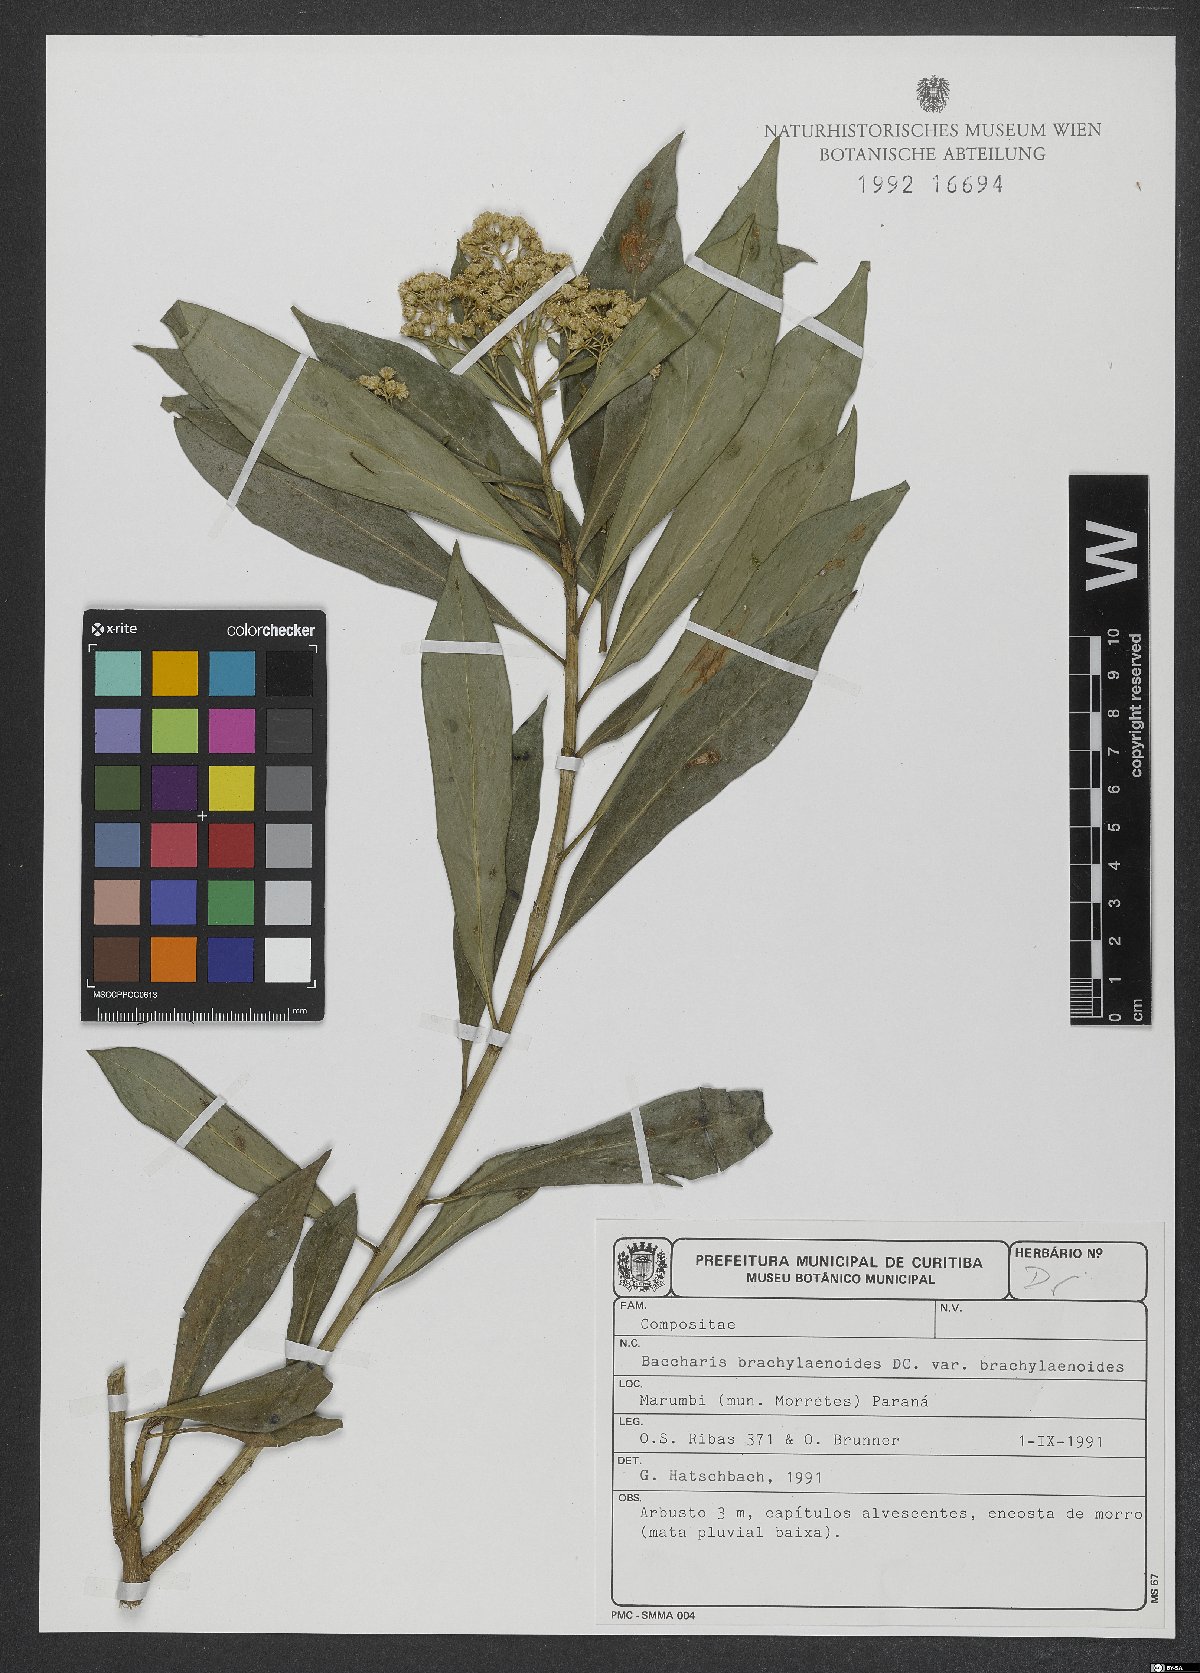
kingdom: Plantae
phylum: Tracheophyta
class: Magnoliopsida
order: Asterales
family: Asteraceae
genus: Baccharis
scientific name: Baccharis oblongifolia
